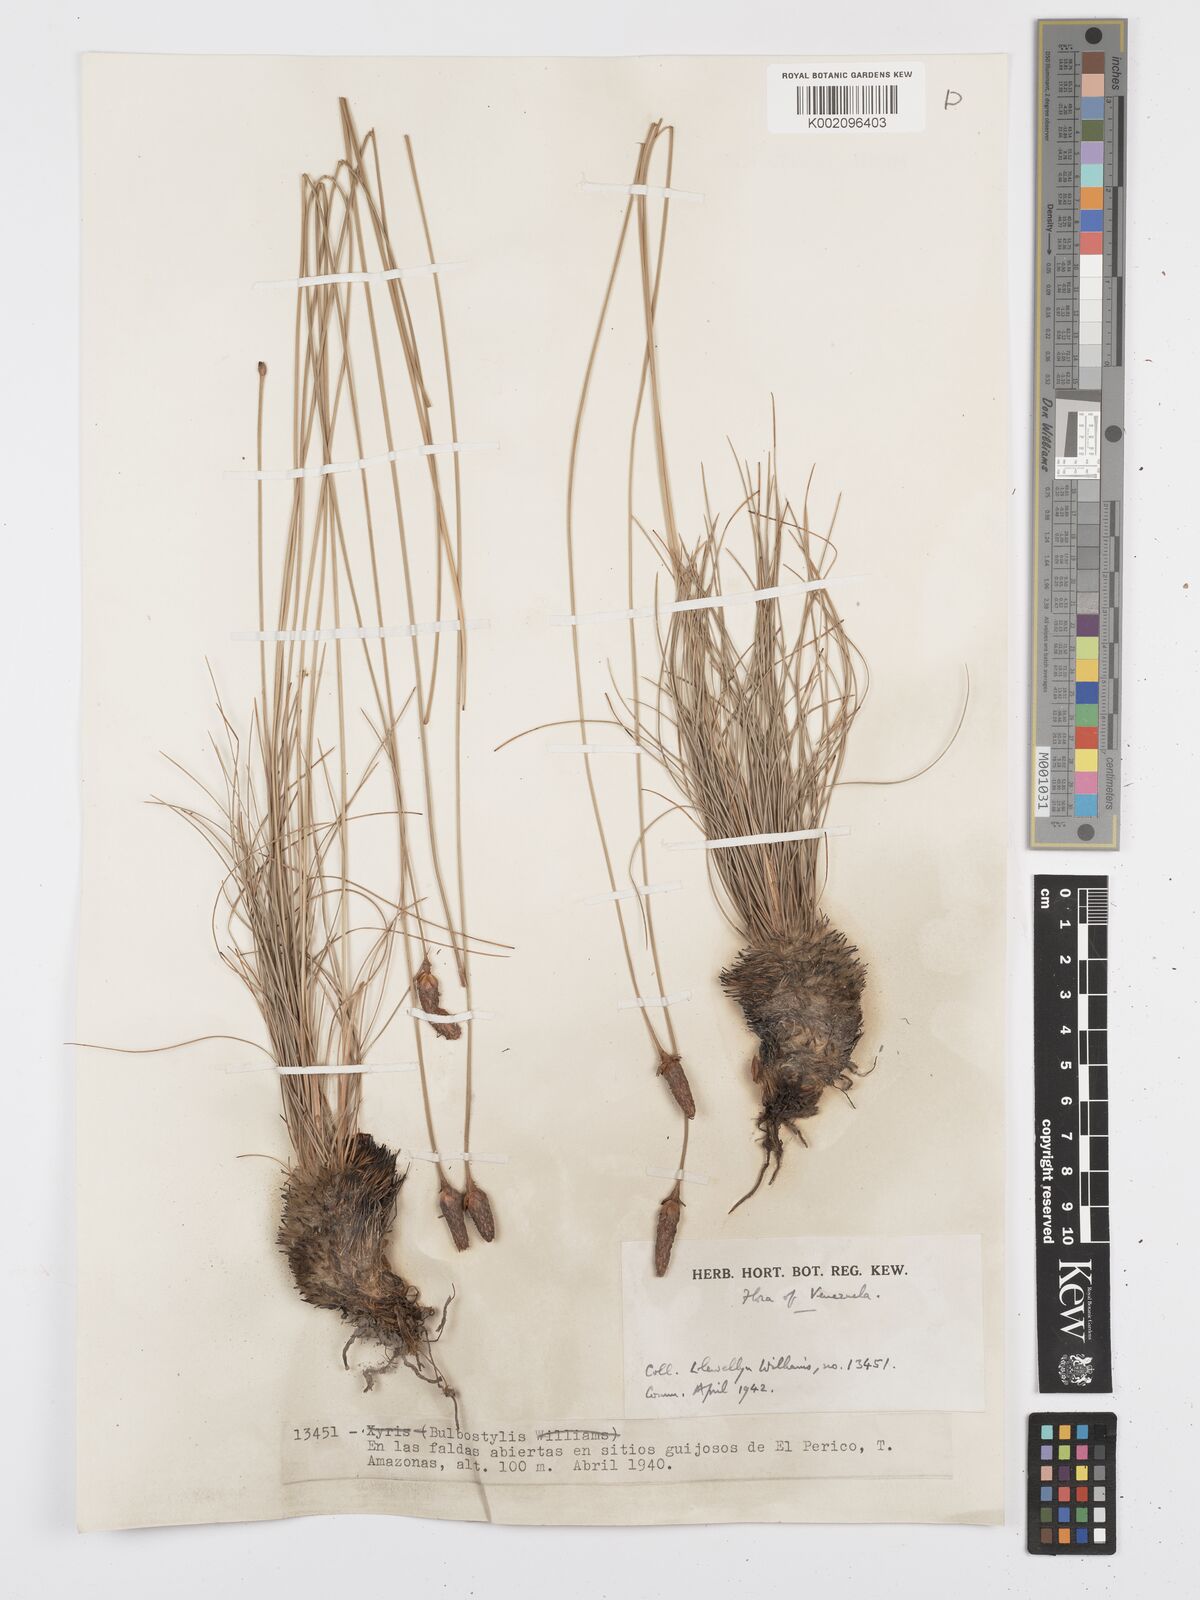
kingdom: Plantae
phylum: Tracheophyta
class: Liliopsida
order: Poales
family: Cyperaceae
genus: Bulbostylis
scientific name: Bulbostylis lanata
